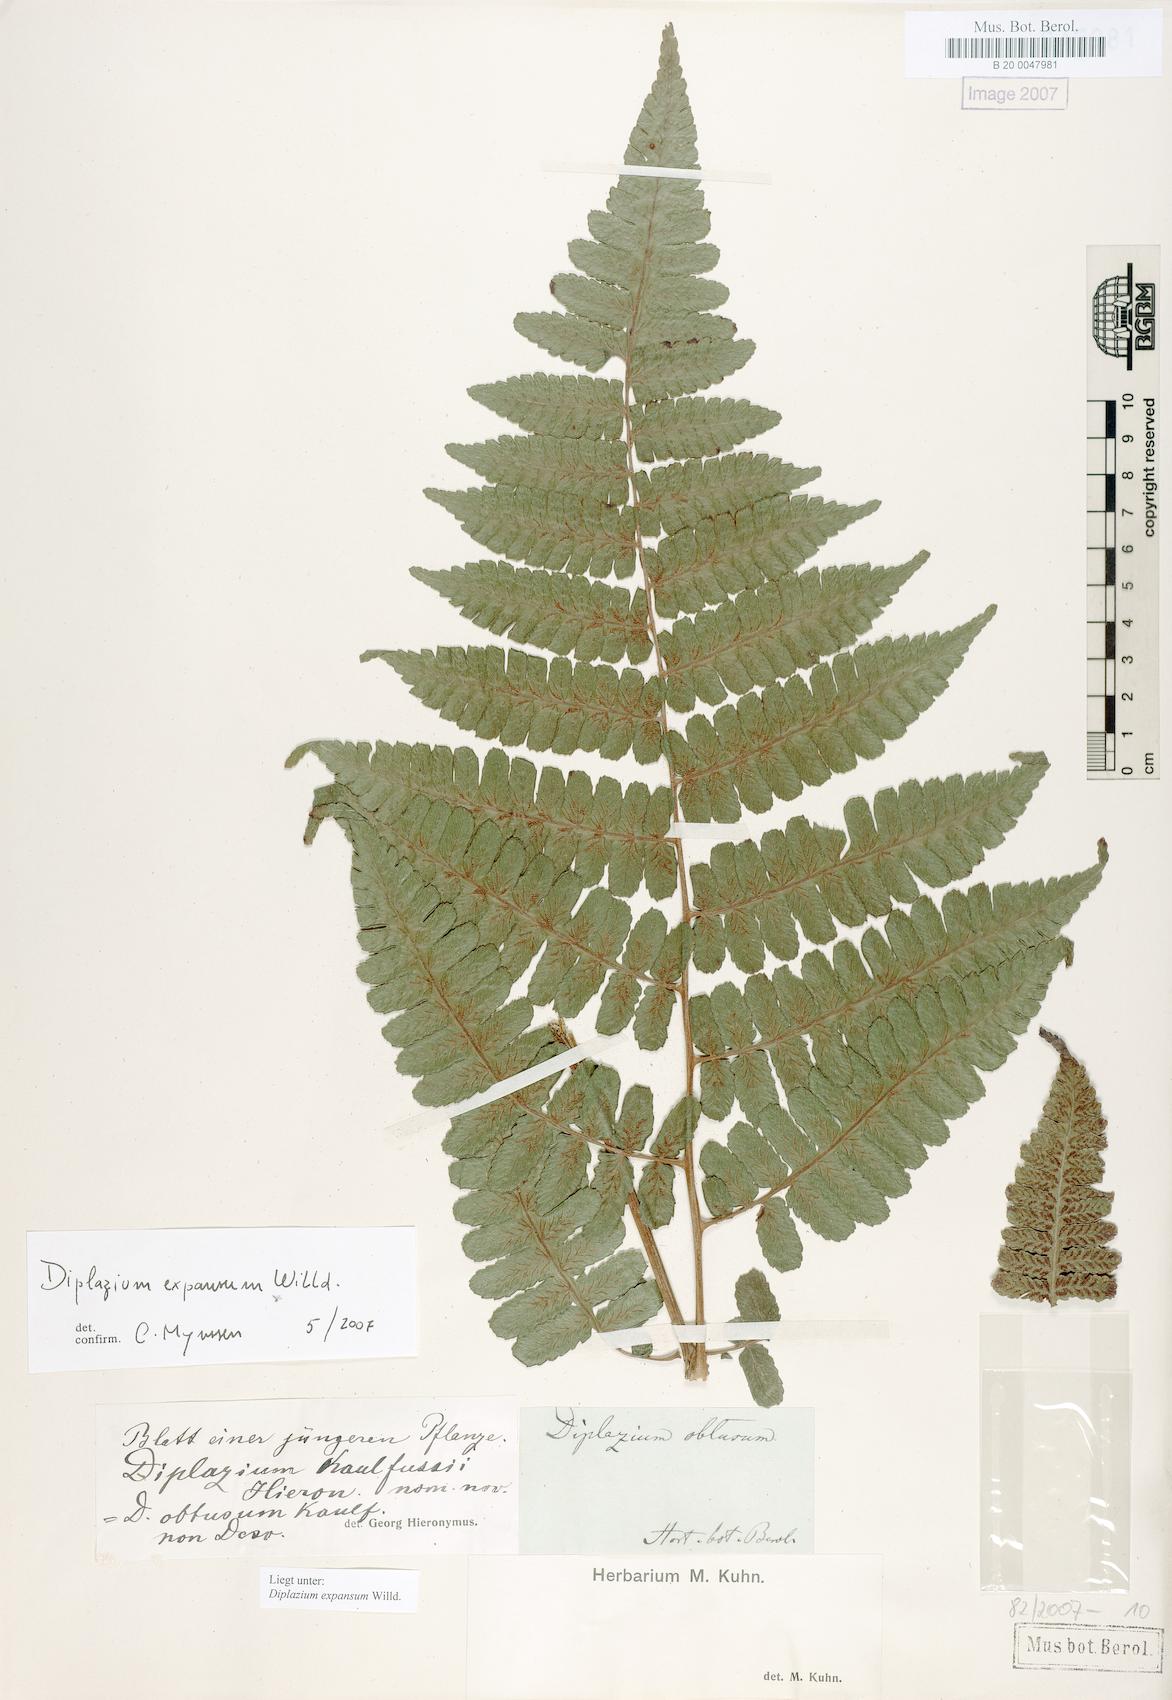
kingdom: Plantae
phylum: Tracheophyta
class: Polypodiopsida
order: Polypodiales
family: Athyriaceae
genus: Diplazium
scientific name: Diplazium expansum
